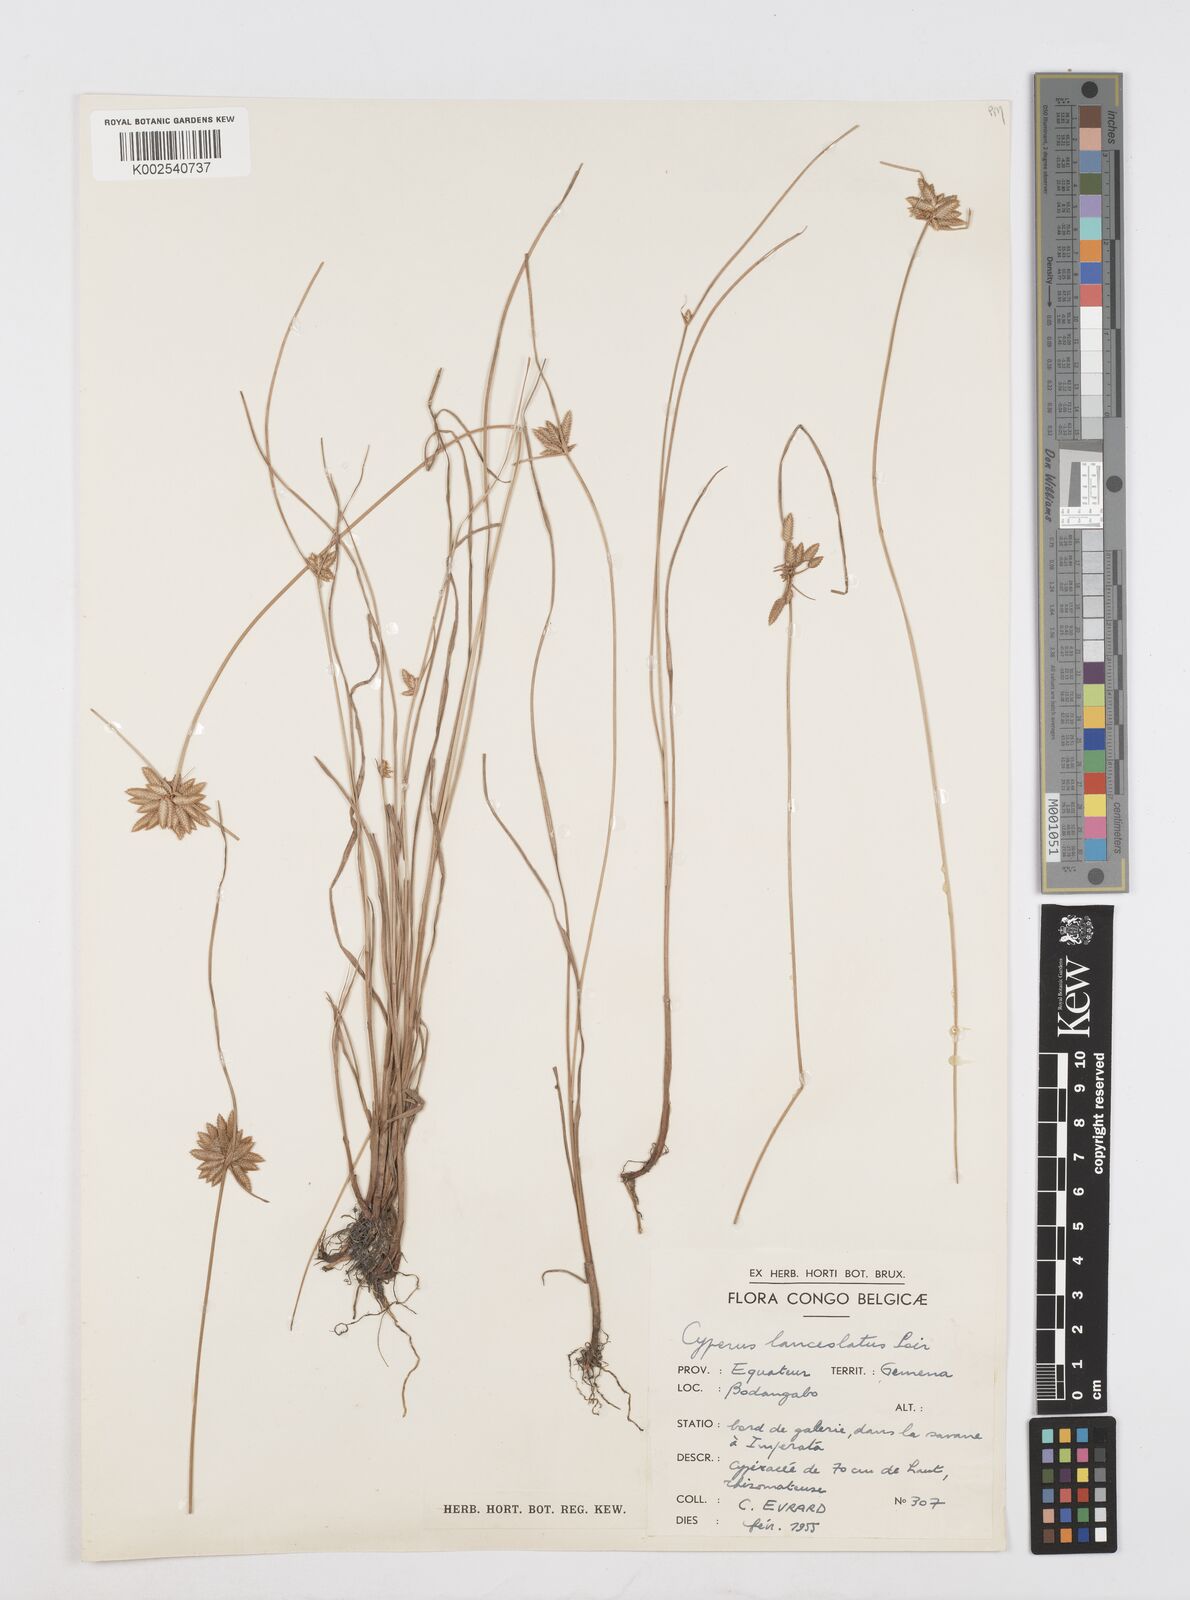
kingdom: Plantae
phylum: Tracheophyta
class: Liliopsida
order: Poales
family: Cyperaceae
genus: Cyperus
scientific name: Cyperus
